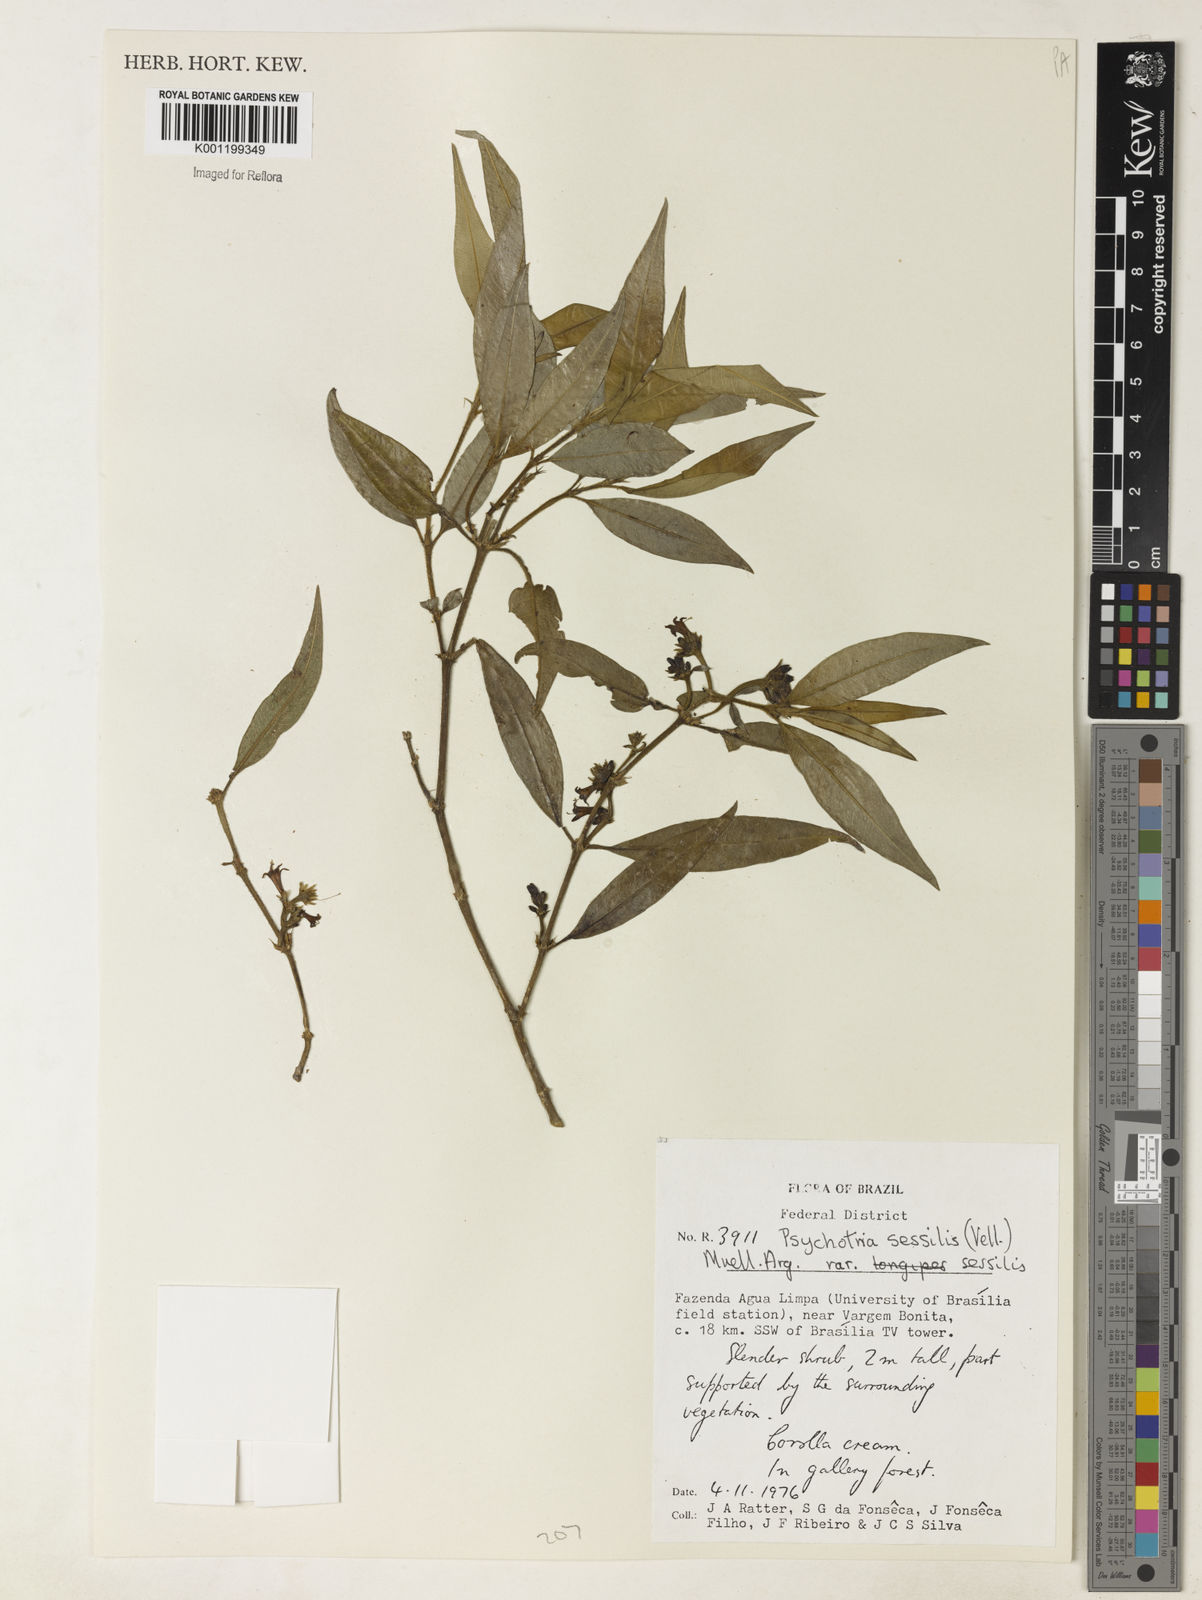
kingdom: Plantae
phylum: Tracheophyta
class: Magnoliopsida
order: Gentianales
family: Rubiaceae
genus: Rudgea
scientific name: Rudgea sessilis
